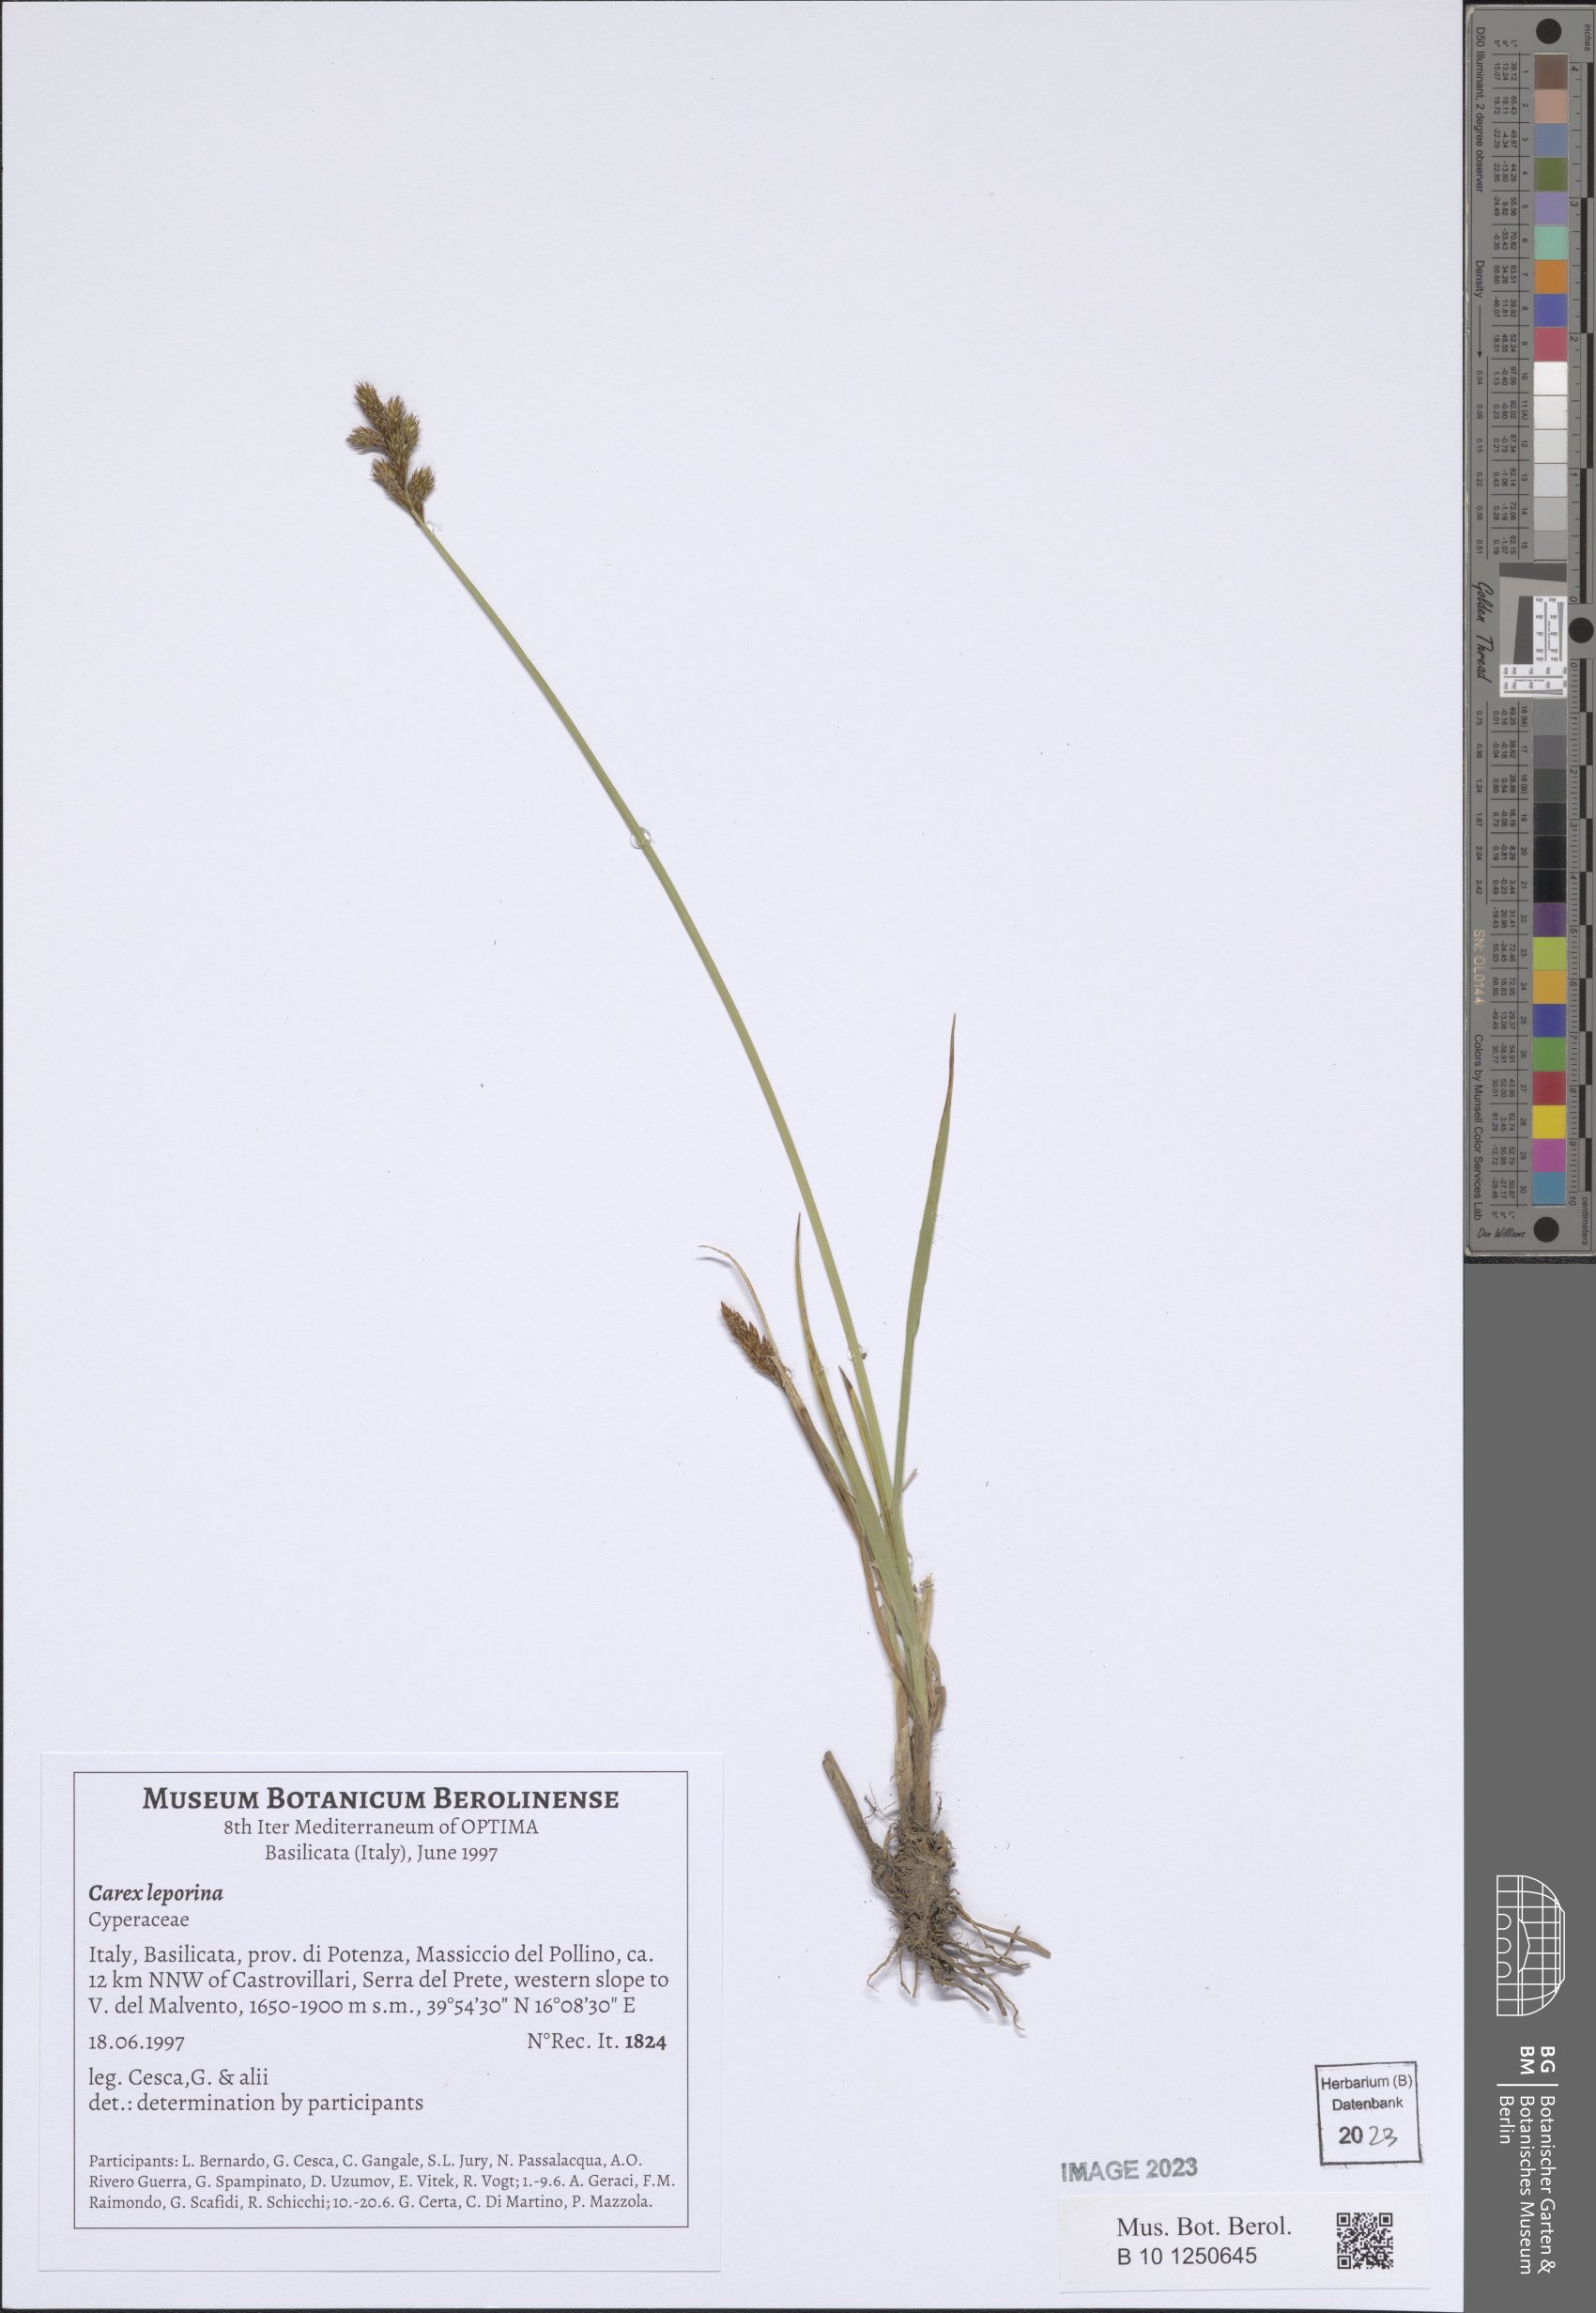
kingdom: Plantae
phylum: Tracheophyta
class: Liliopsida
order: Poales
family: Cyperaceae
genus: Carex
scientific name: Carex leporina
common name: Oval sedge
